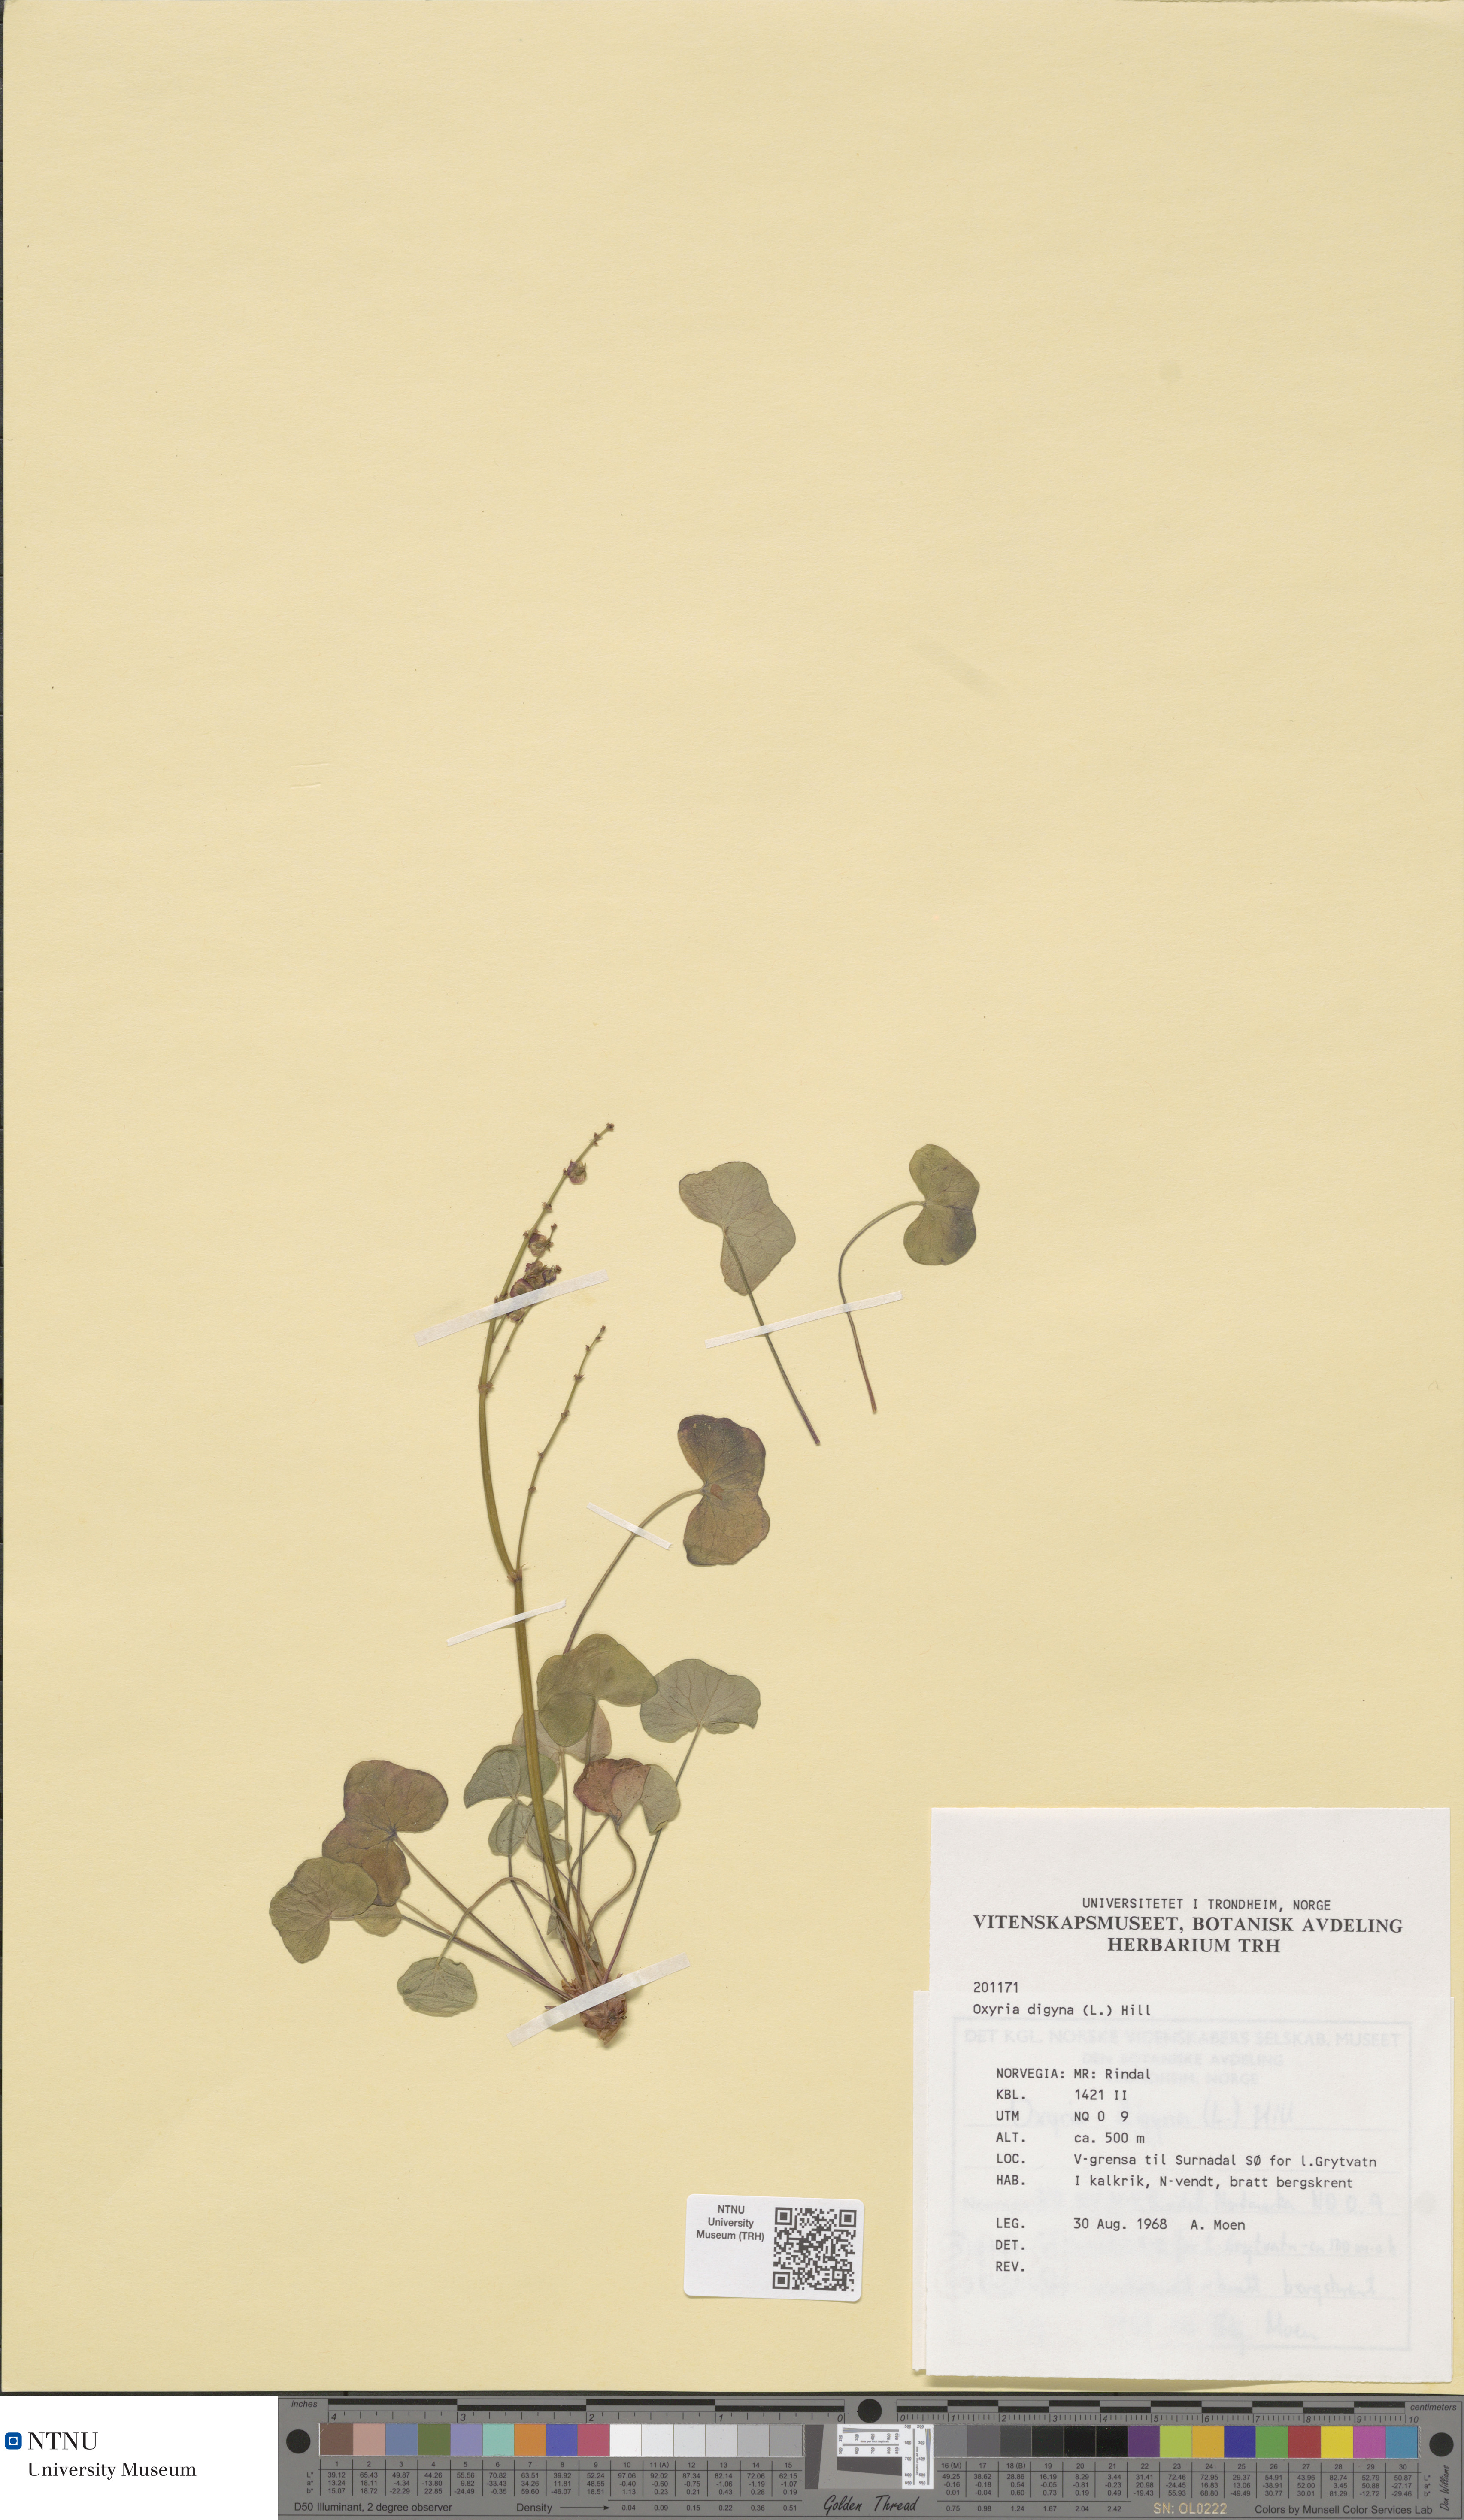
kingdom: Plantae
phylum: Tracheophyta
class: Magnoliopsida
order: Caryophyllales
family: Polygonaceae
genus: Oxyria
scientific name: Oxyria digyna
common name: Alpine mountain-sorrel
